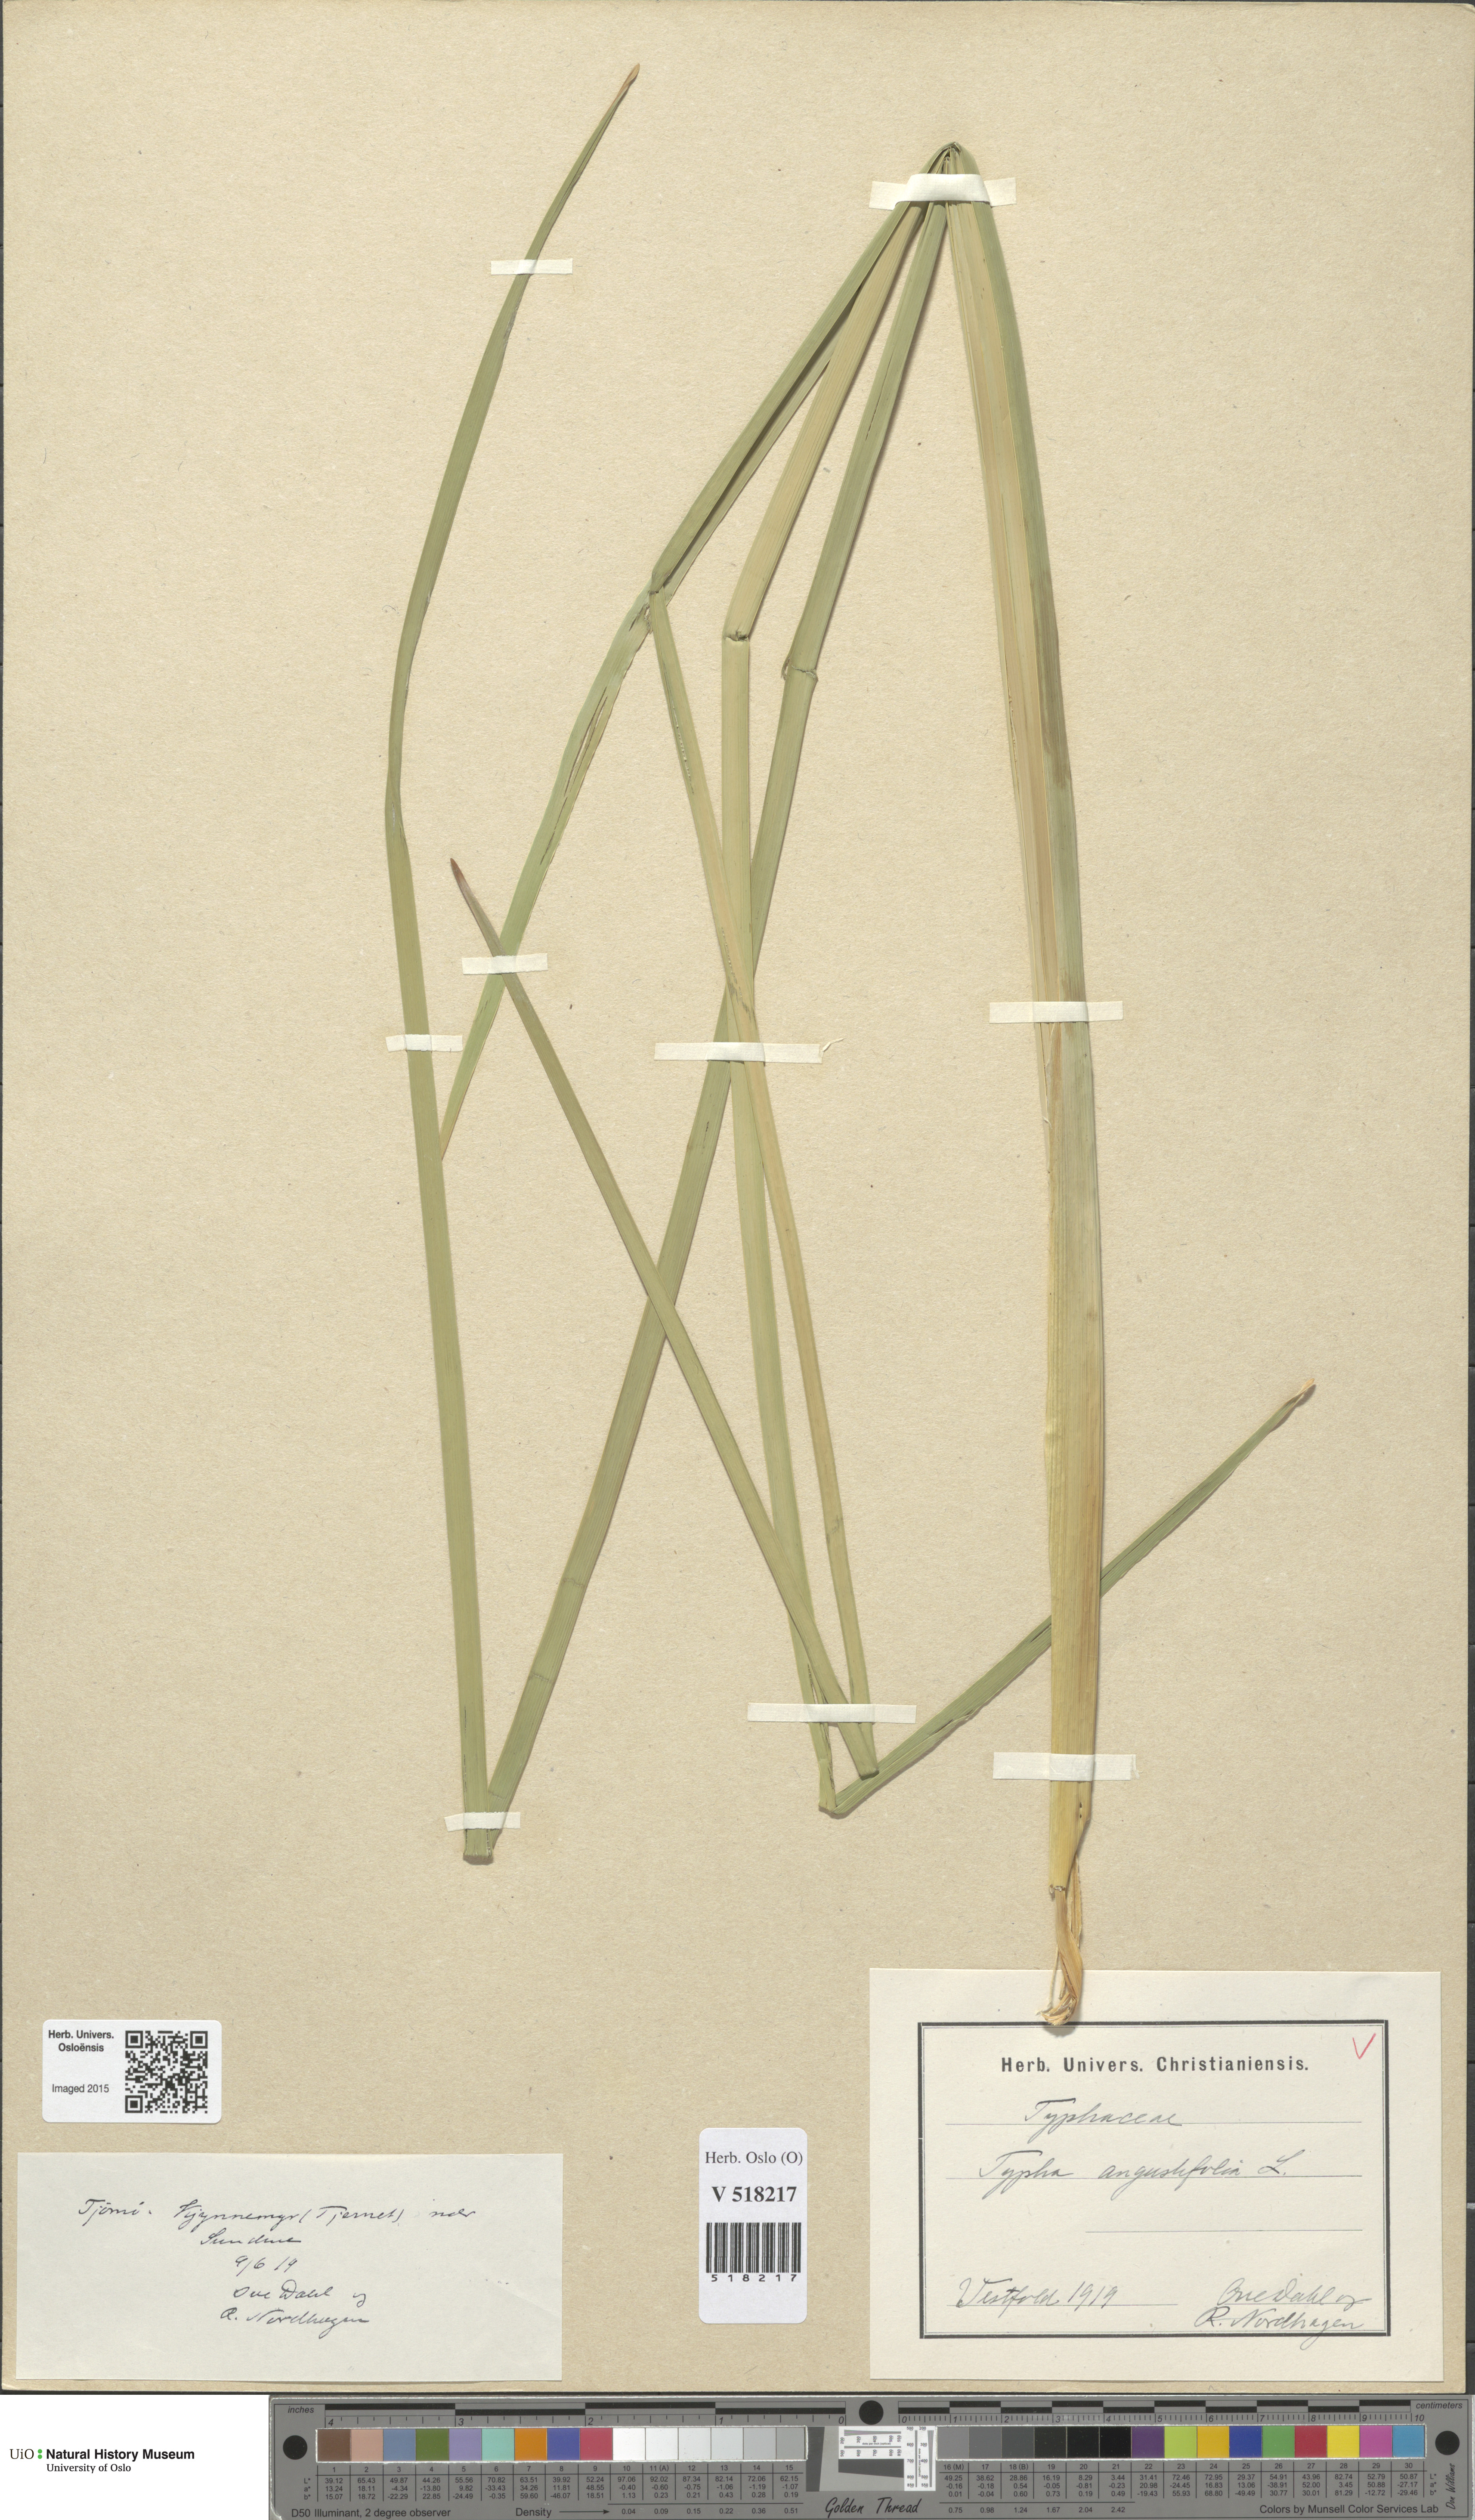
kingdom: Plantae
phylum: Tracheophyta
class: Liliopsida
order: Poales
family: Typhaceae
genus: Typha
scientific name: Typha angustifolia
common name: Lesser bulrush
